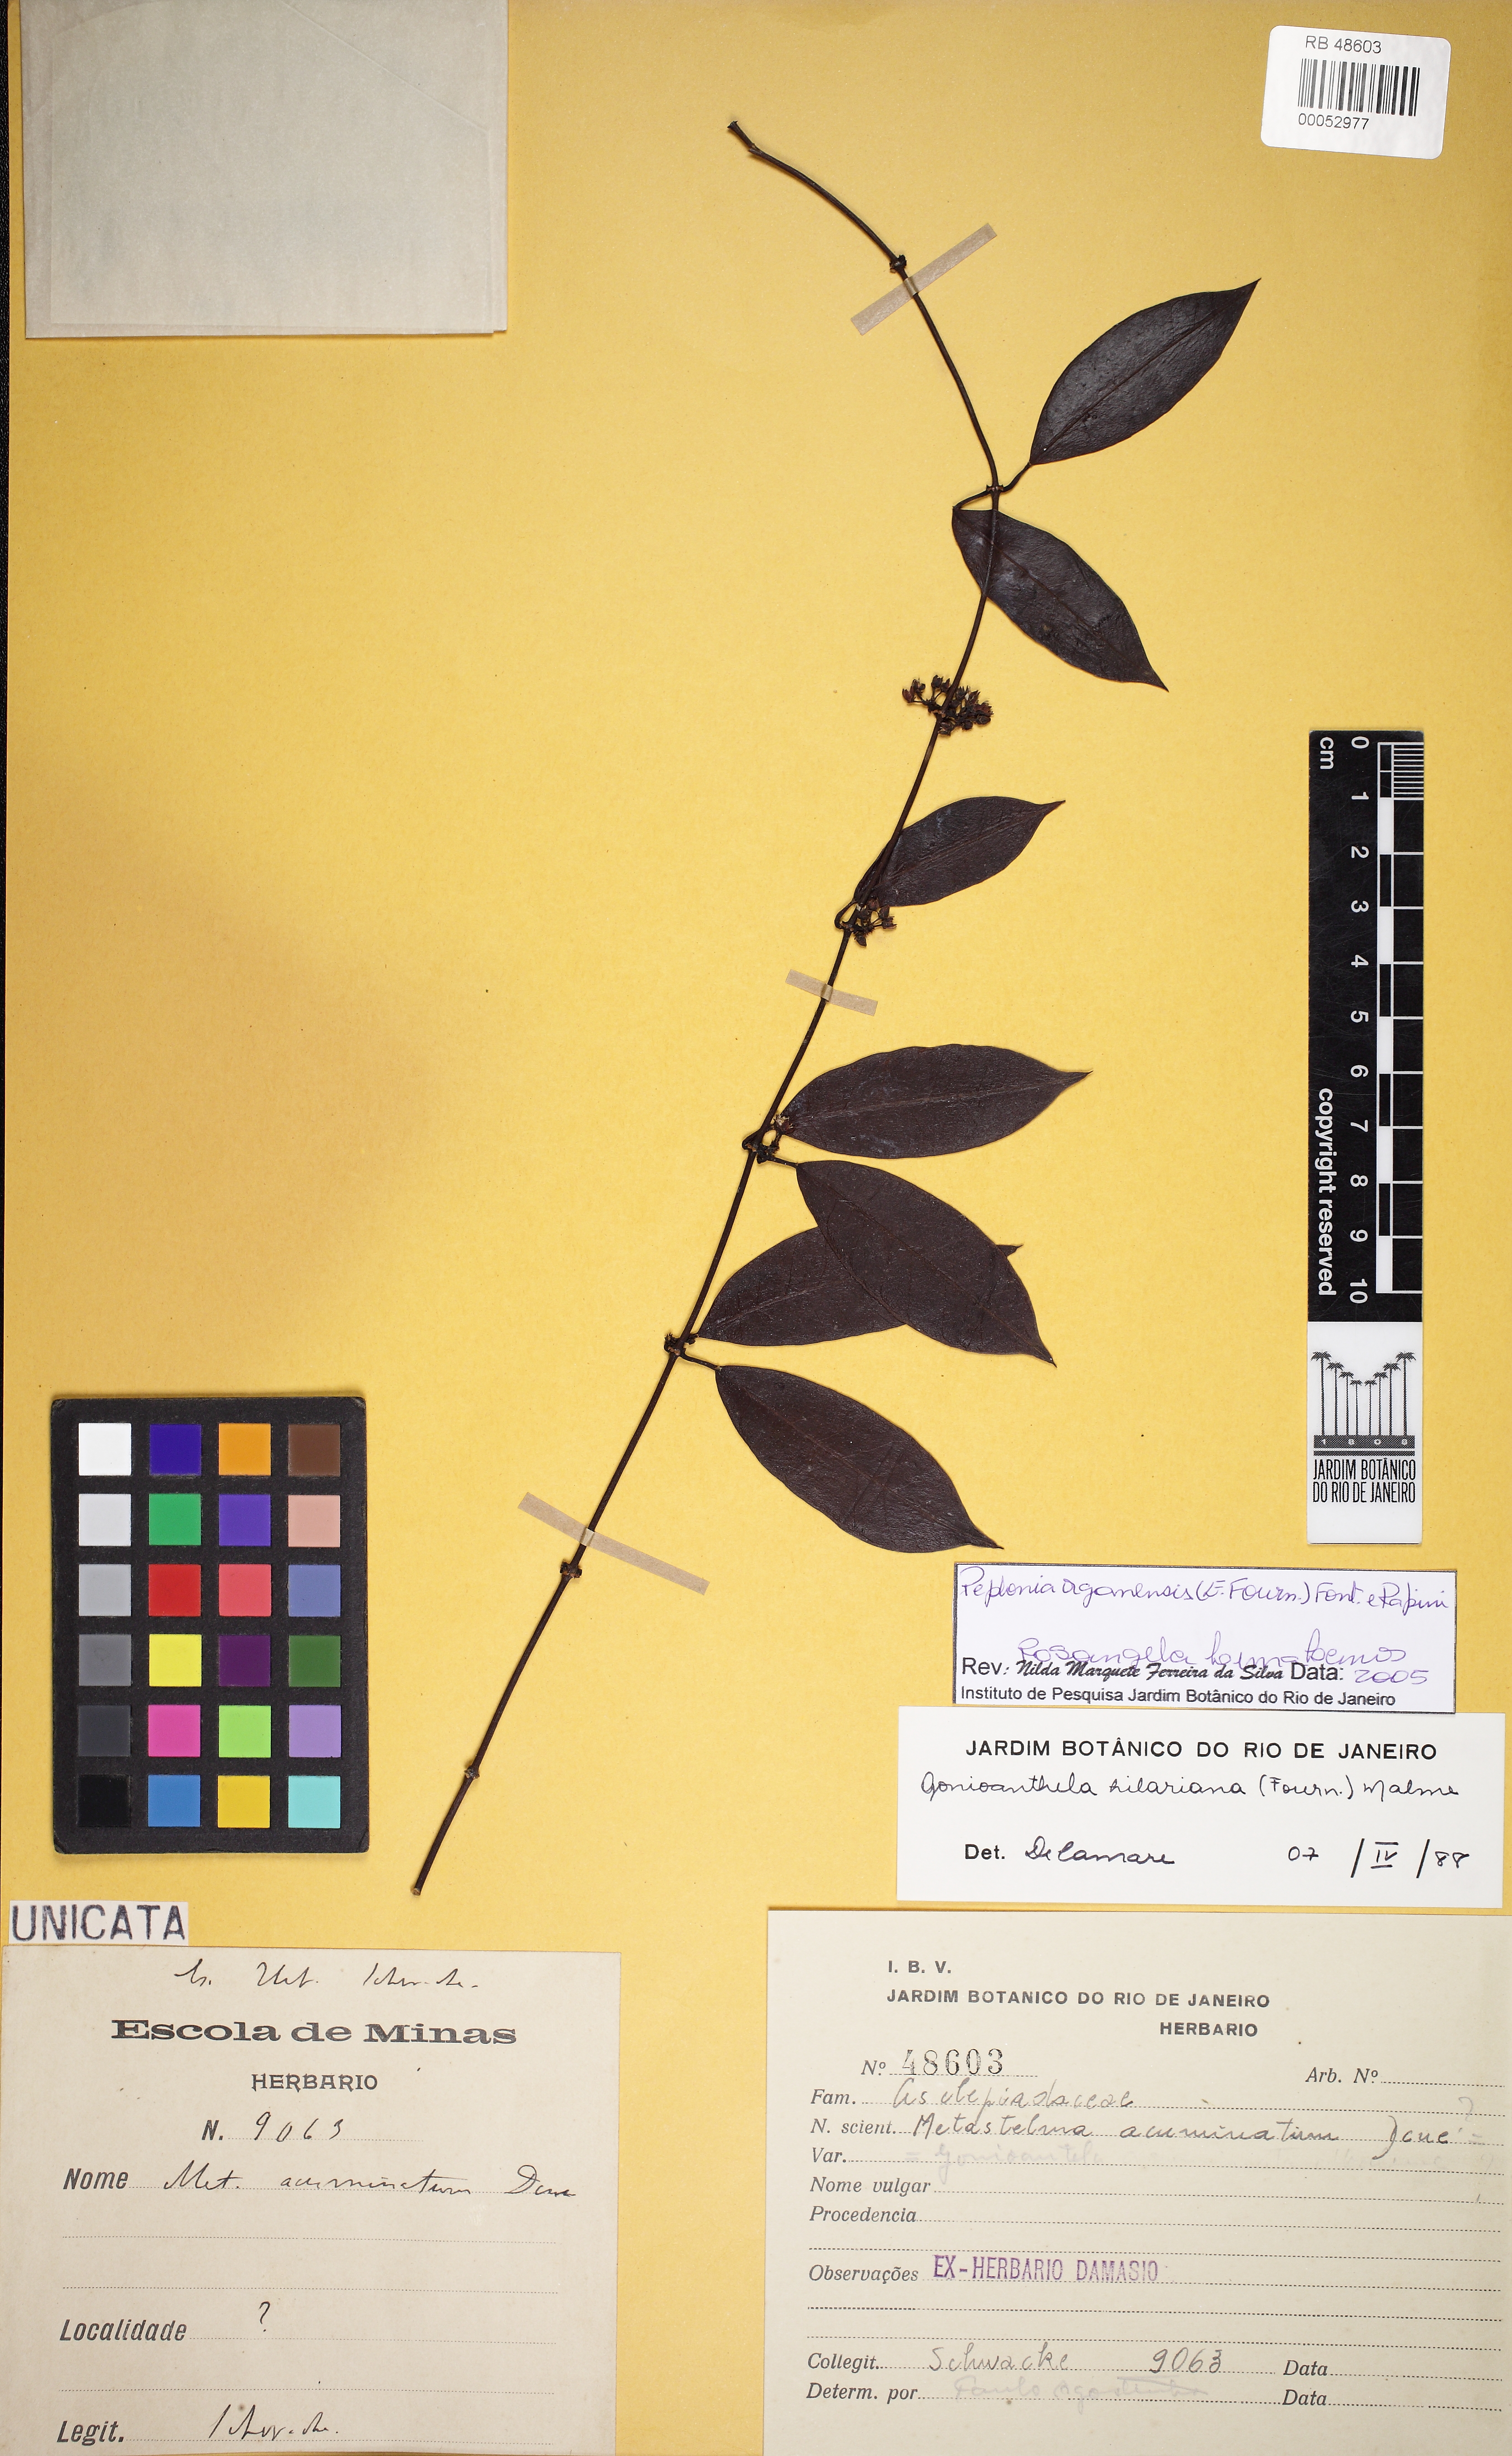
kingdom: Plantae
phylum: Tracheophyta
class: Magnoliopsida
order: Gentianales
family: Apocynaceae
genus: Peplonia
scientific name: Peplonia organensis
